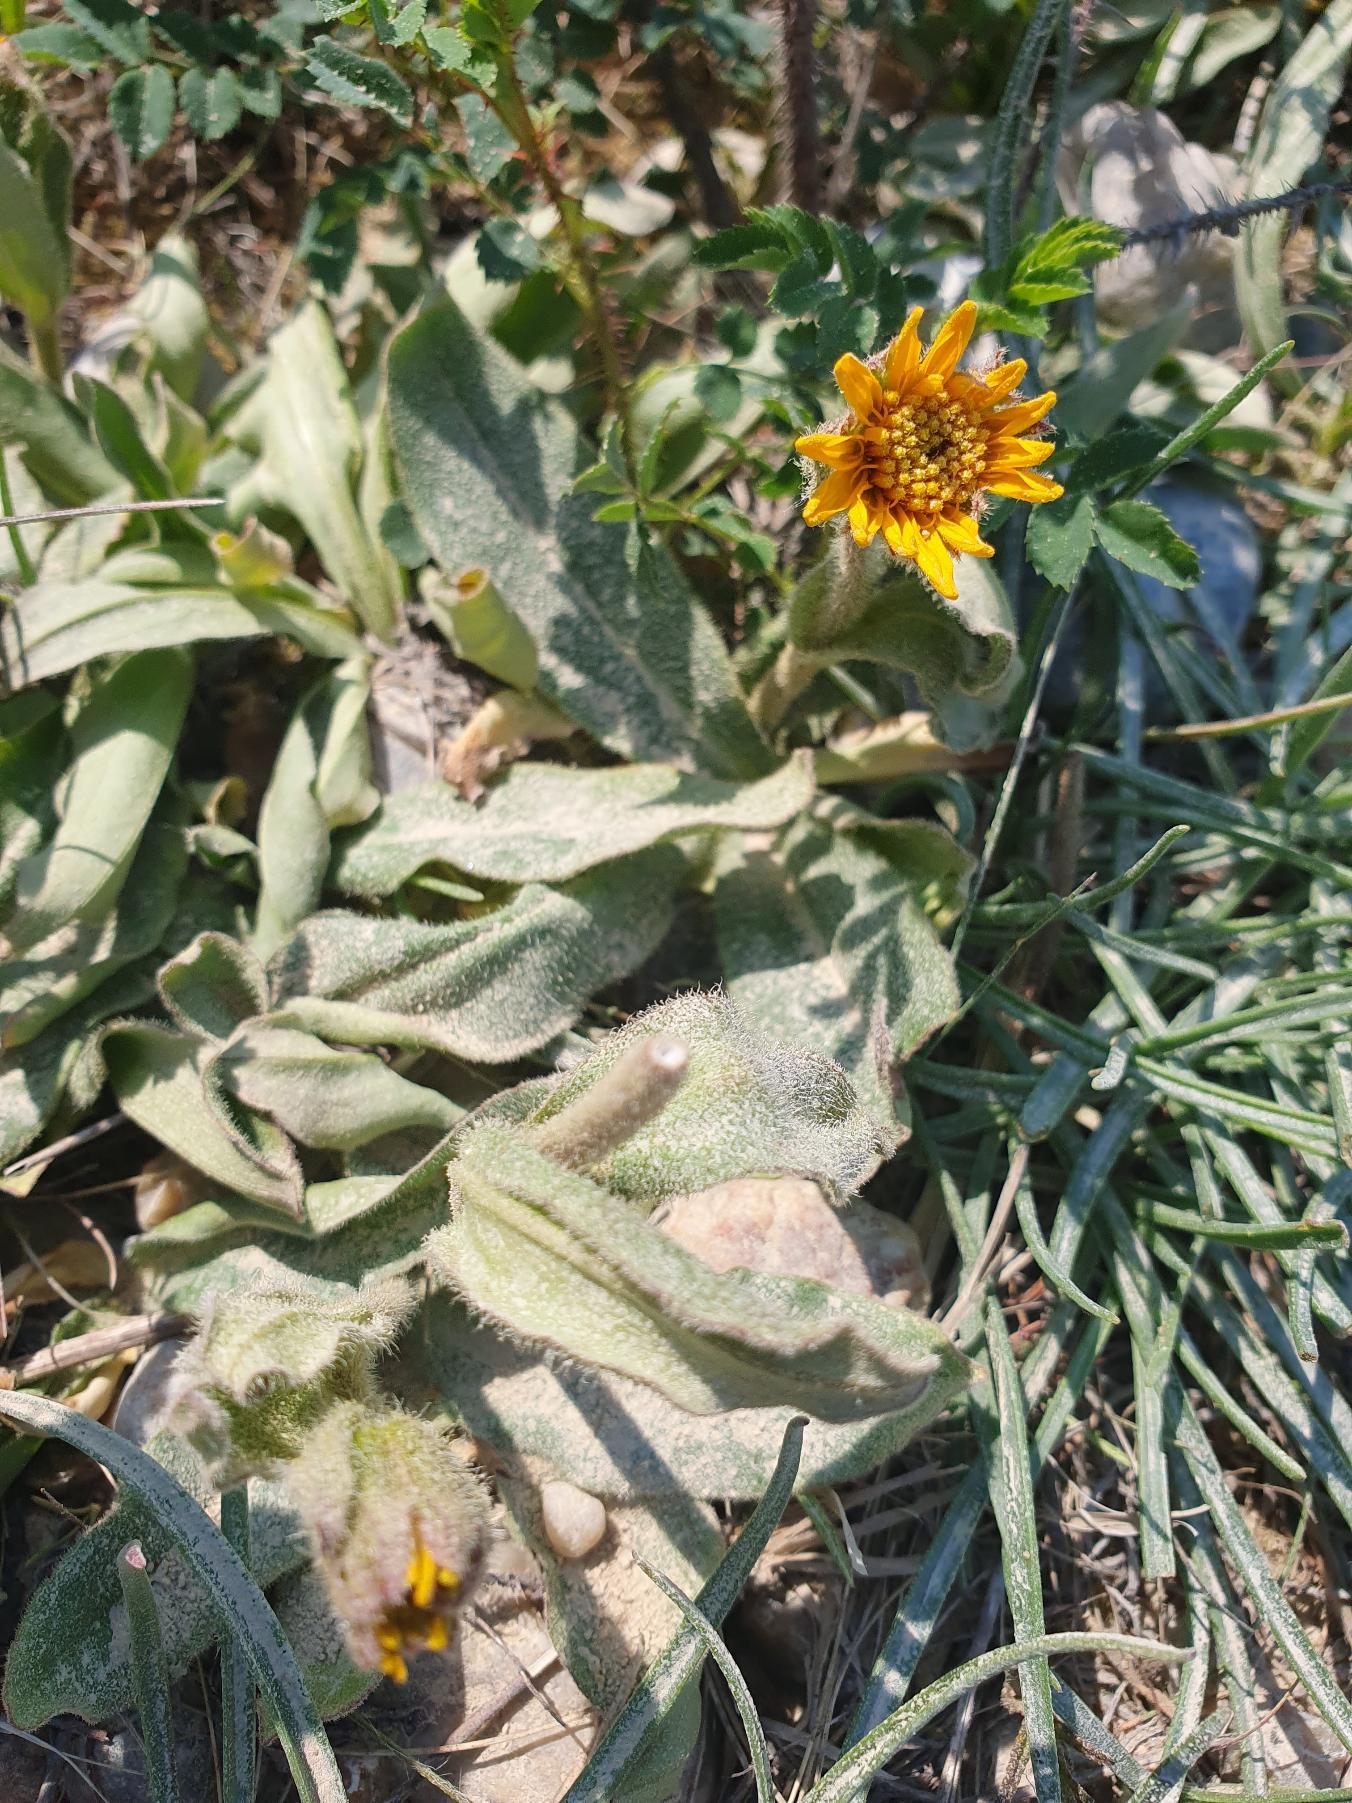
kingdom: Plantae
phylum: Tracheophyta
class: Magnoliopsida
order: Asterales
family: Asteraceae
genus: Arnica
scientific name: Arnica montana
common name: Guldblomme
